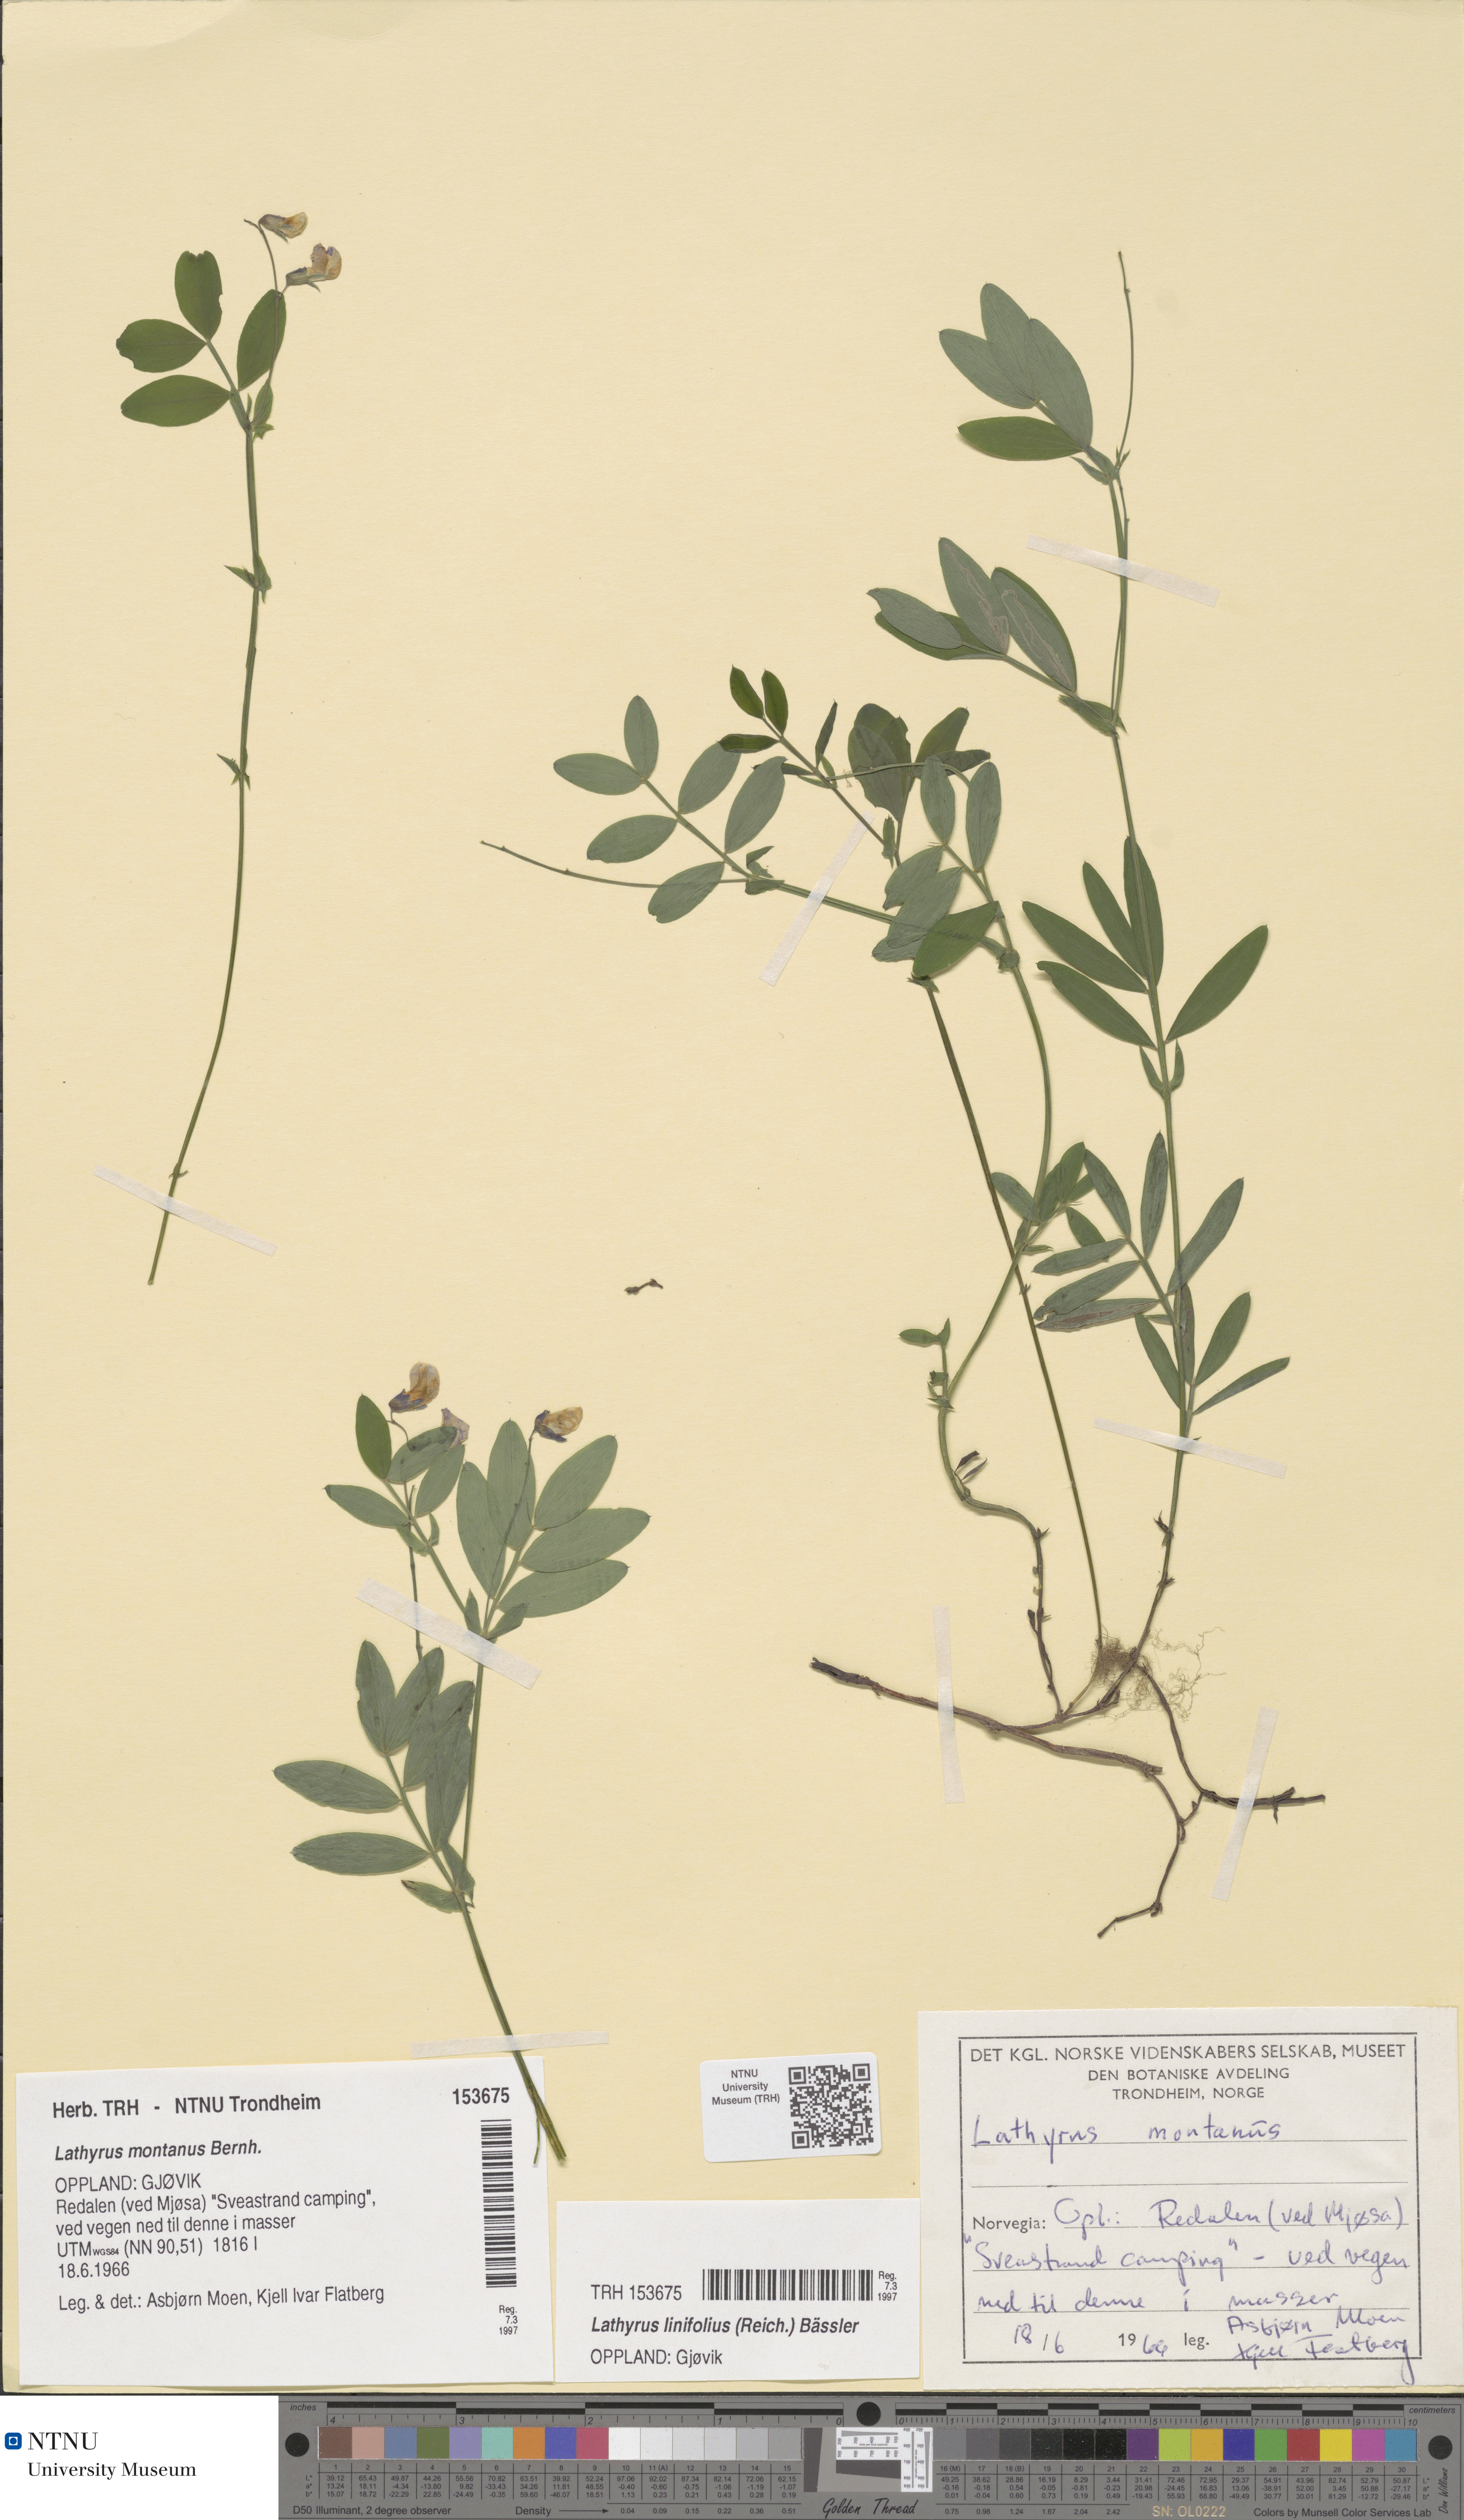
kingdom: Plantae
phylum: Tracheophyta
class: Magnoliopsida
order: Fabales
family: Fabaceae
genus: Lathyrus
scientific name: Lathyrus linifolius
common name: Bitter-vetch
